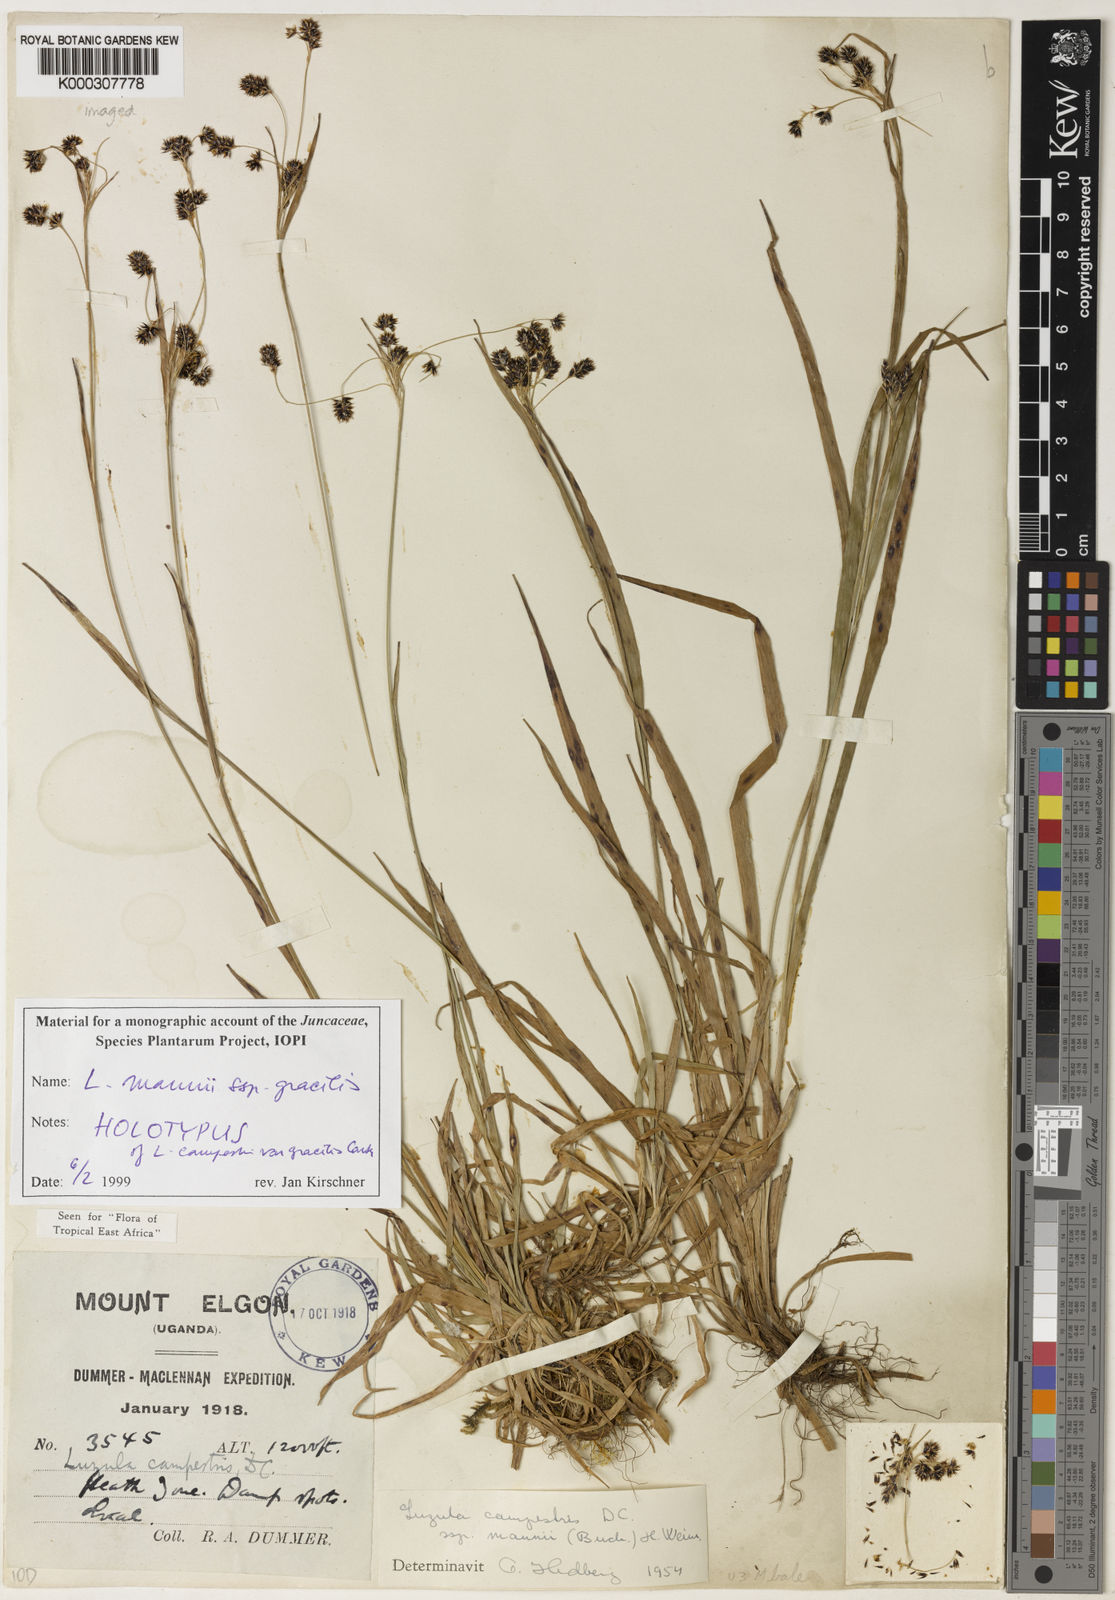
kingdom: Plantae
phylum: Tracheophyta
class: Liliopsida
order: Poales
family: Juncaceae
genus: Luzula
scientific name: Luzula mannii
